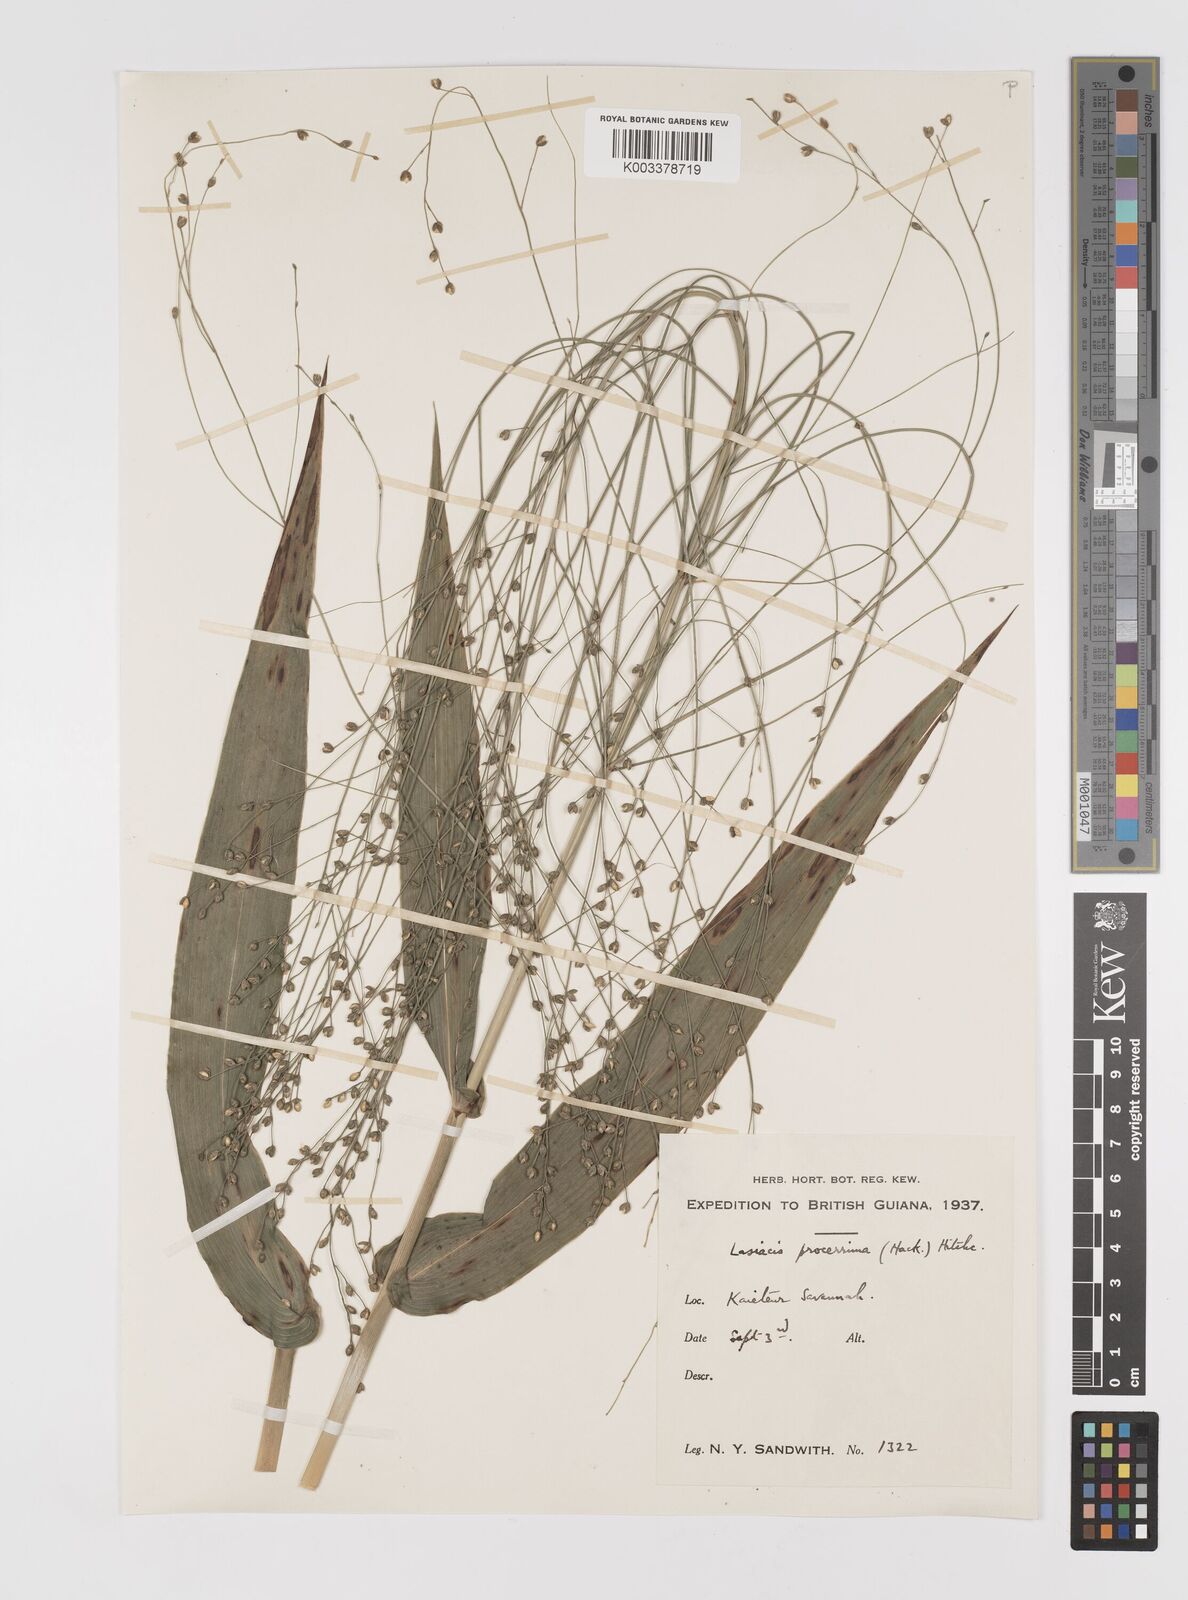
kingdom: Plantae
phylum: Tracheophyta
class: Liliopsida
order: Poales
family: Poaceae
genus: Lasiacis
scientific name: Lasiacis procerrima
